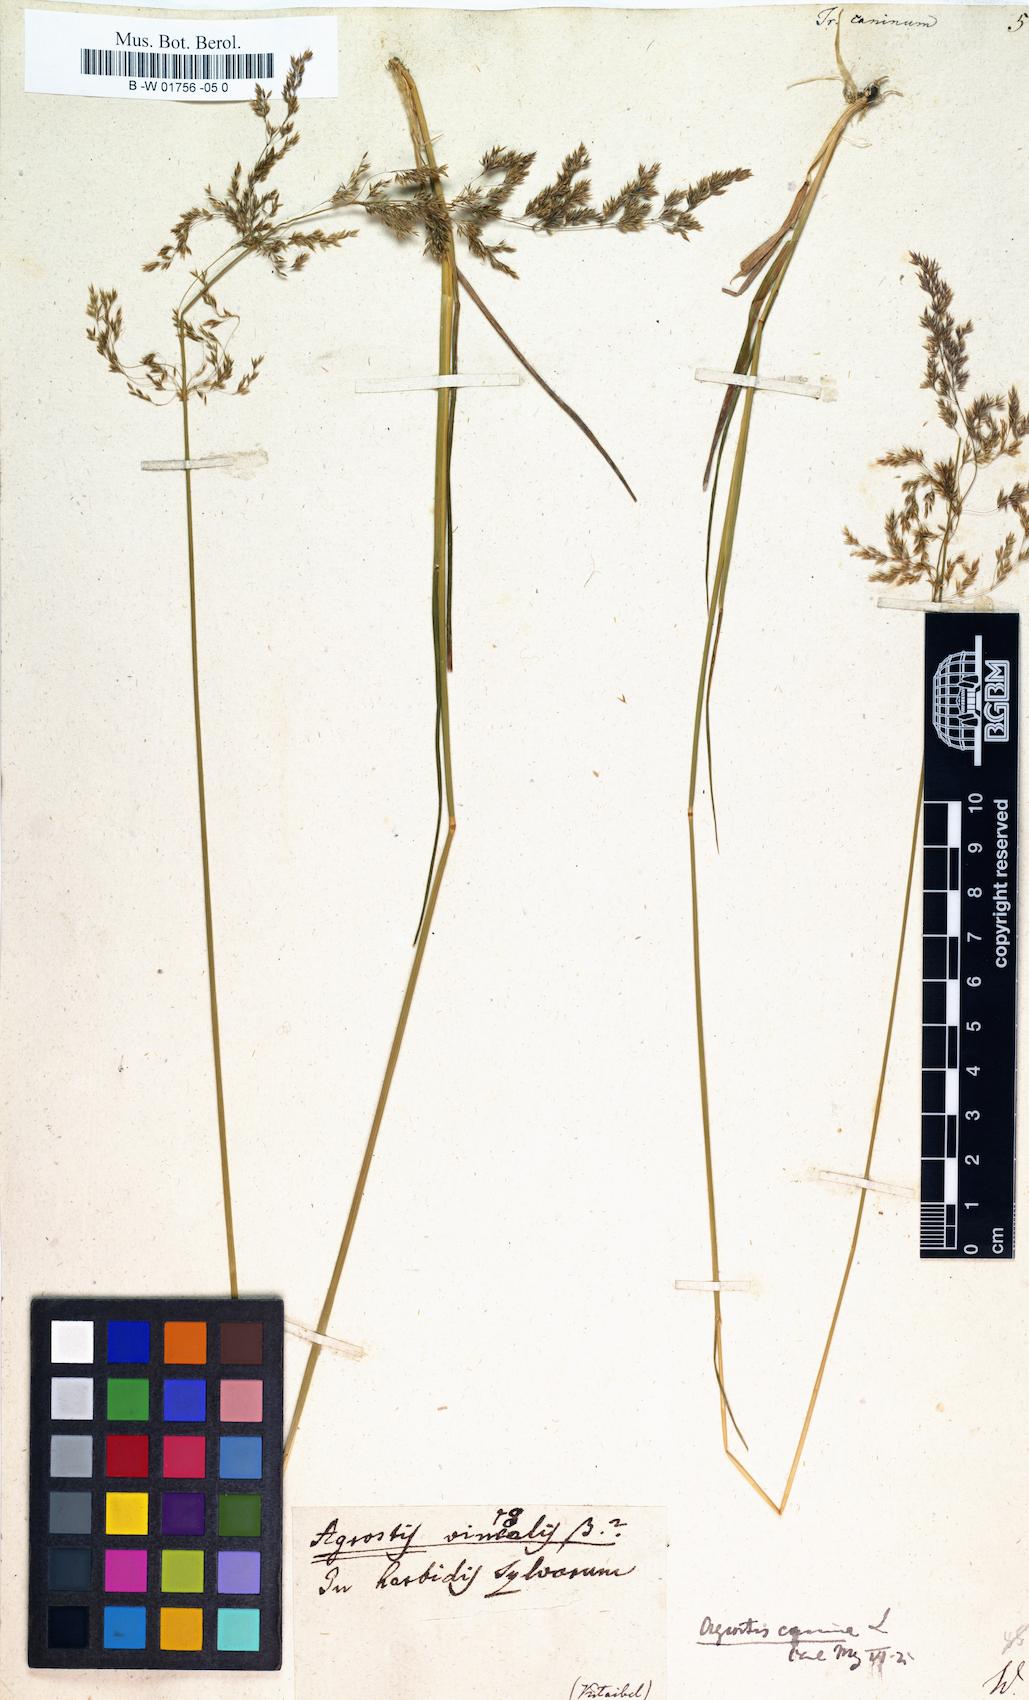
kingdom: Plantae
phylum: Tracheophyta
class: Liliopsida
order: Poales
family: Poaceae
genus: Agrostis
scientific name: Agrostis canina
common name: Velvet bent
